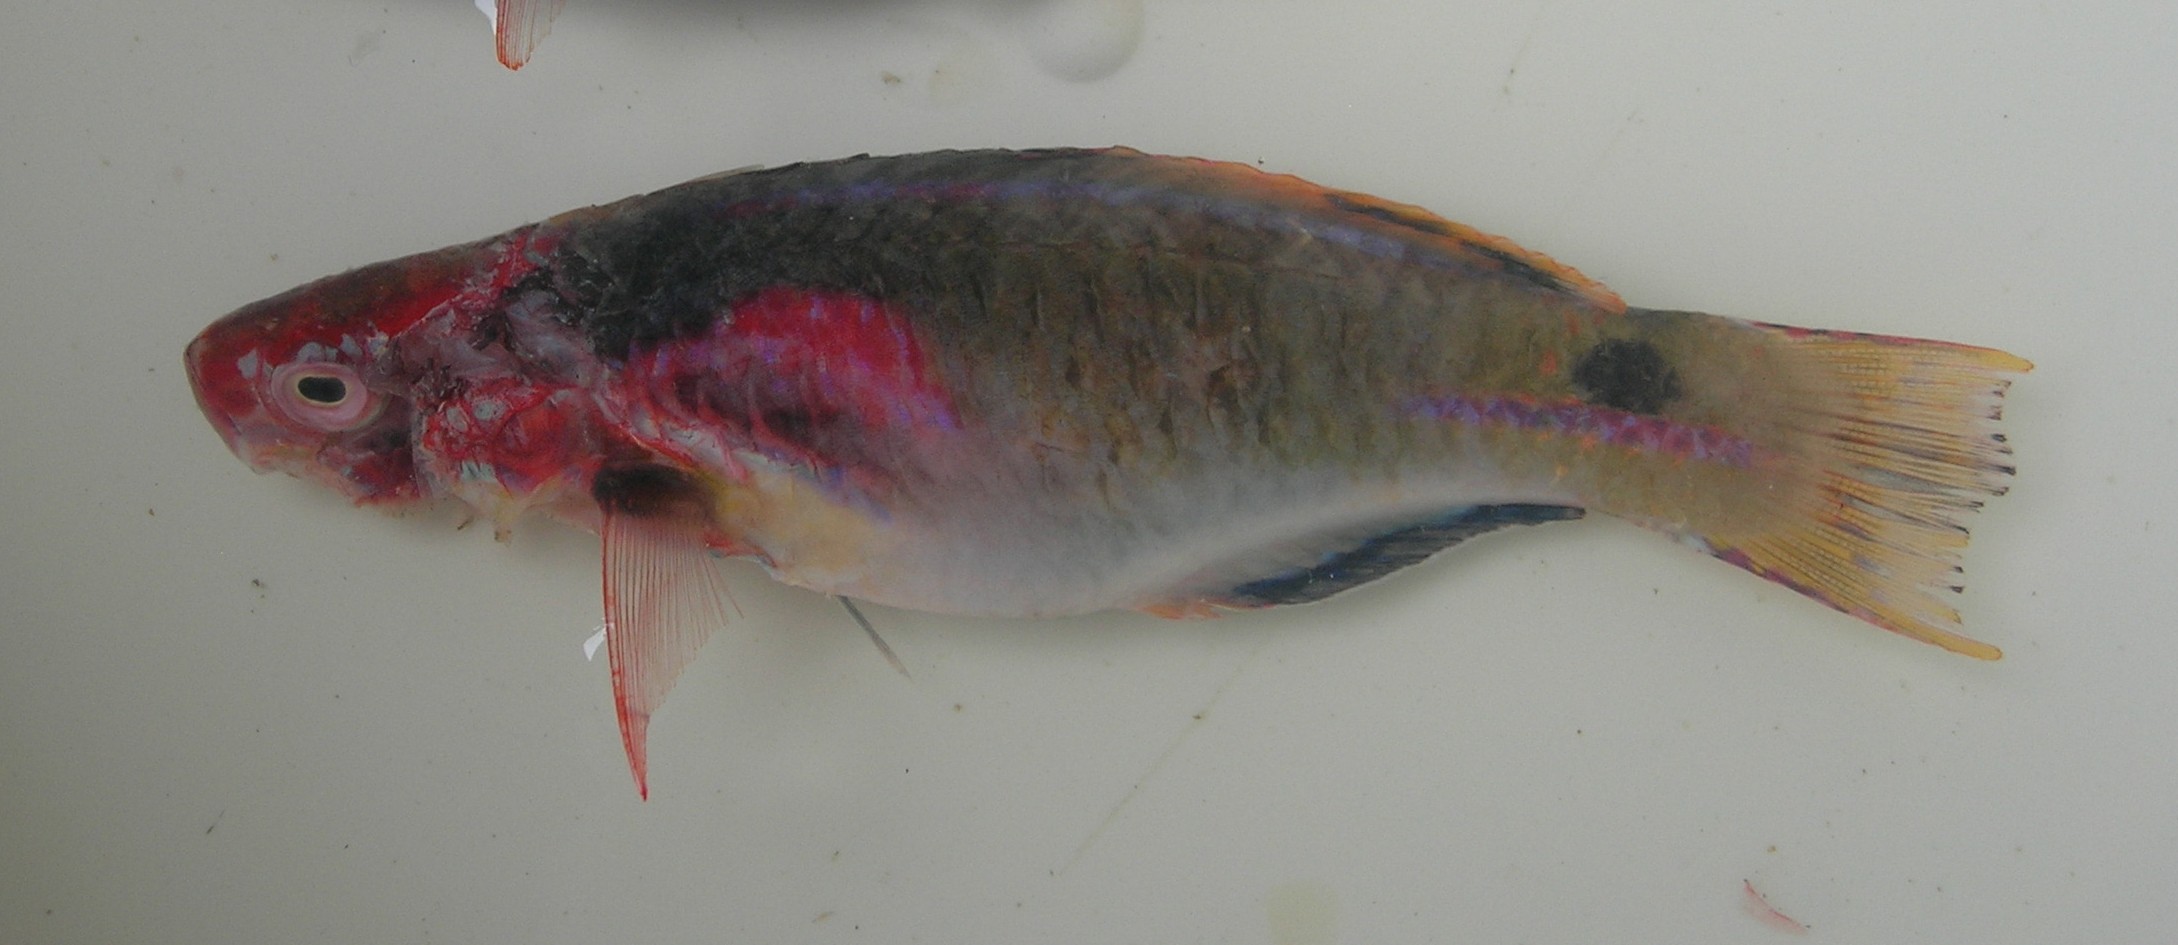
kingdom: Animalia
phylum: Chordata
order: Perciformes
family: Labridae
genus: Cirrhilabrus
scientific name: Cirrhilabrus exquisitus
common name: Exquisite wrasse
